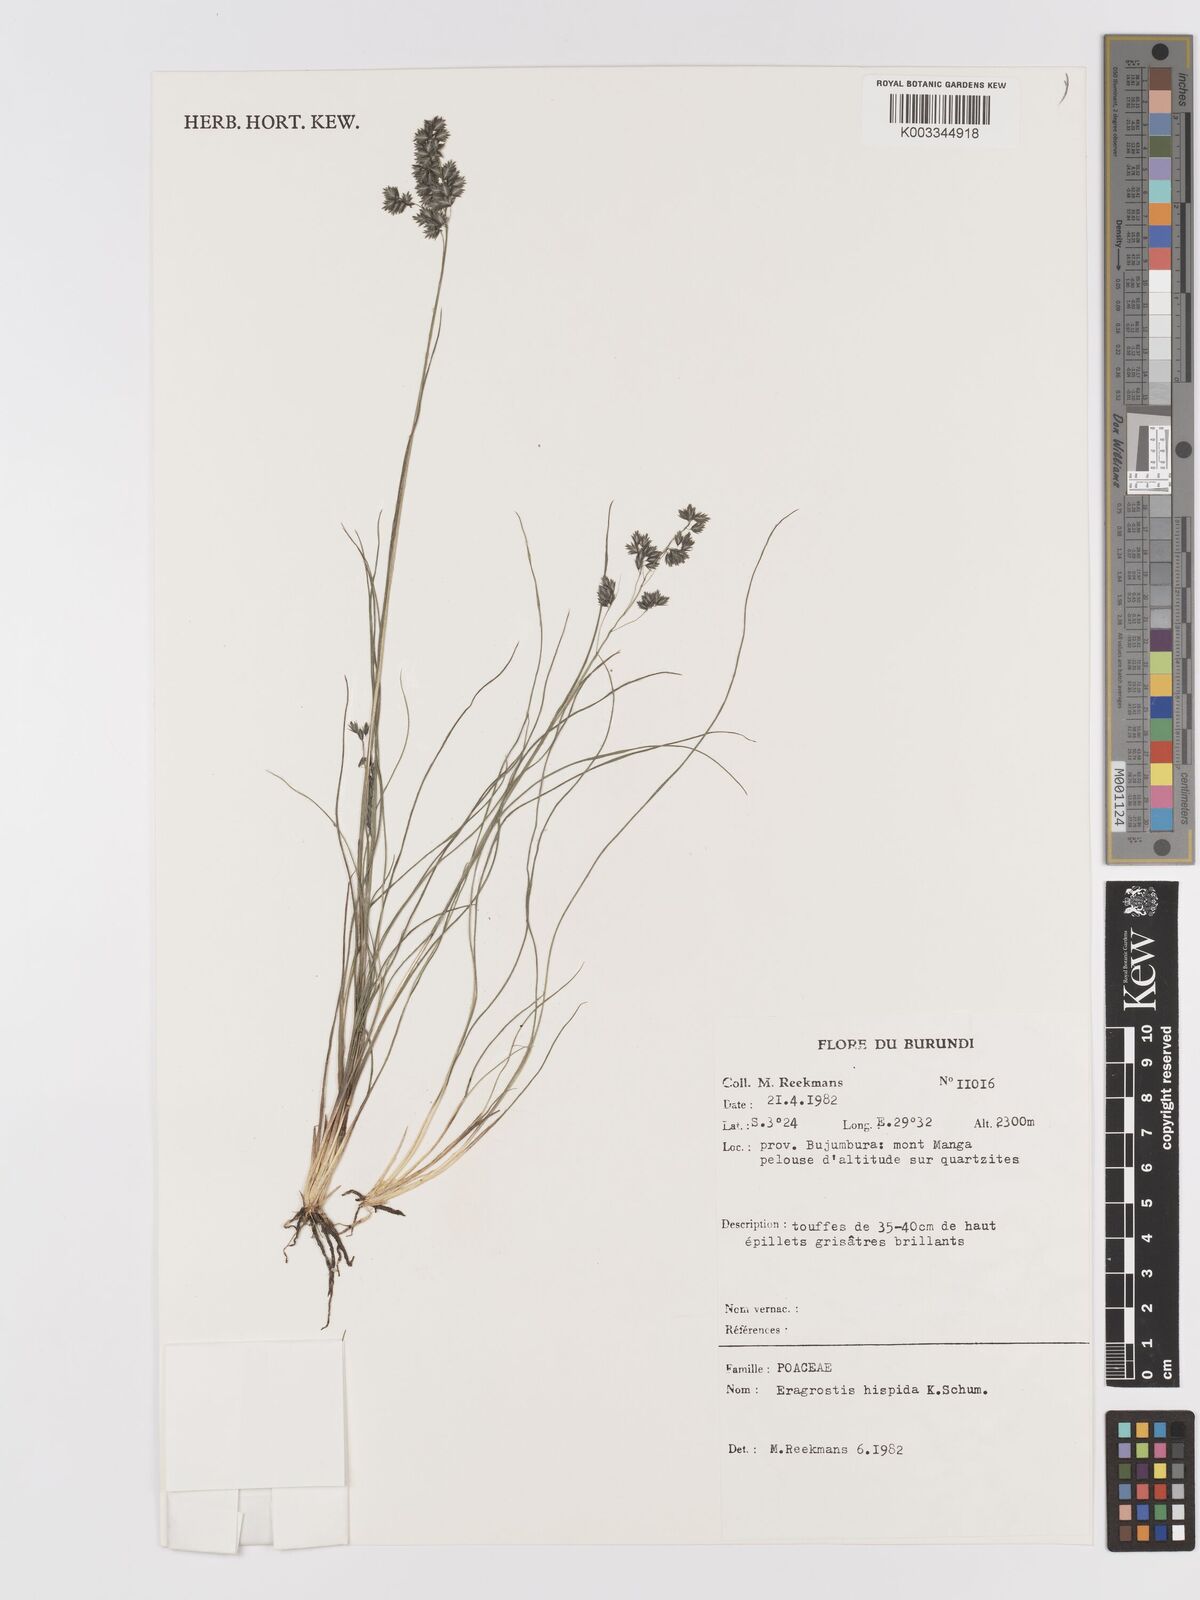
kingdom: Plantae
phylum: Tracheophyta
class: Liliopsida
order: Poales
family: Poaceae
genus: Eragrostis
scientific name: Eragrostis hispida
